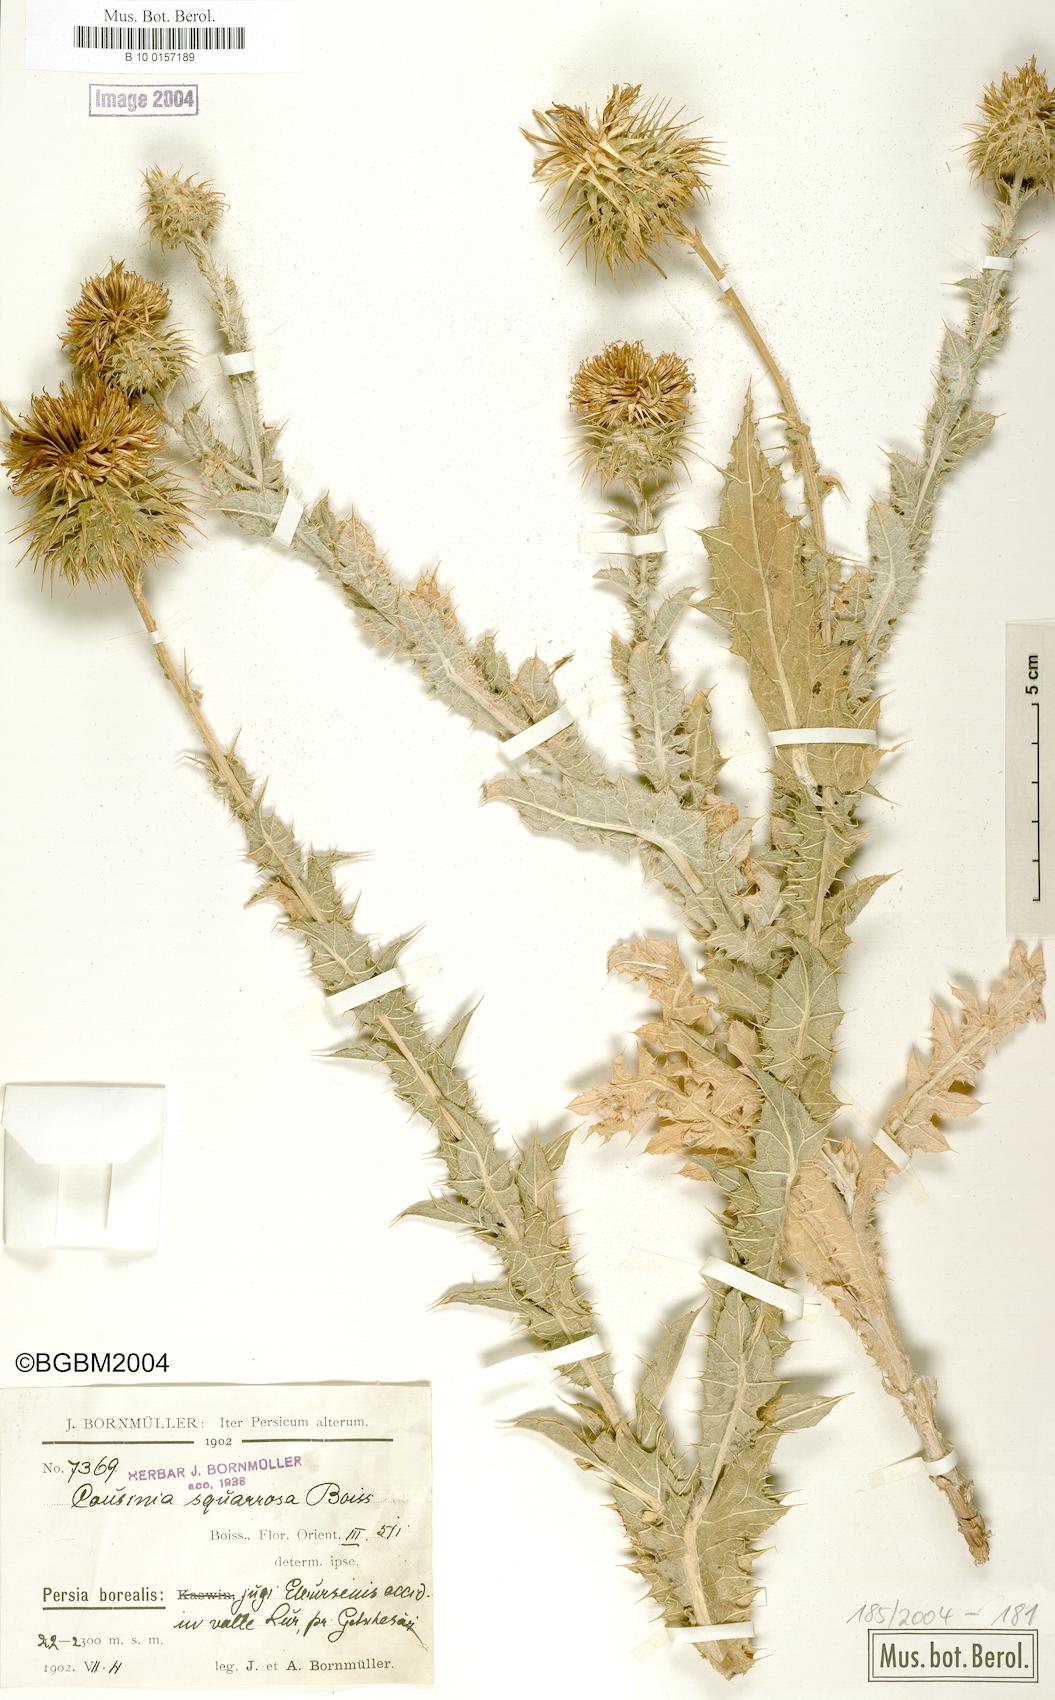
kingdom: Plantae
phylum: Tracheophyta
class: Magnoliopsida
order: Asterales
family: Asteraceae
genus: Cousinia
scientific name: Cousinia calocephala
